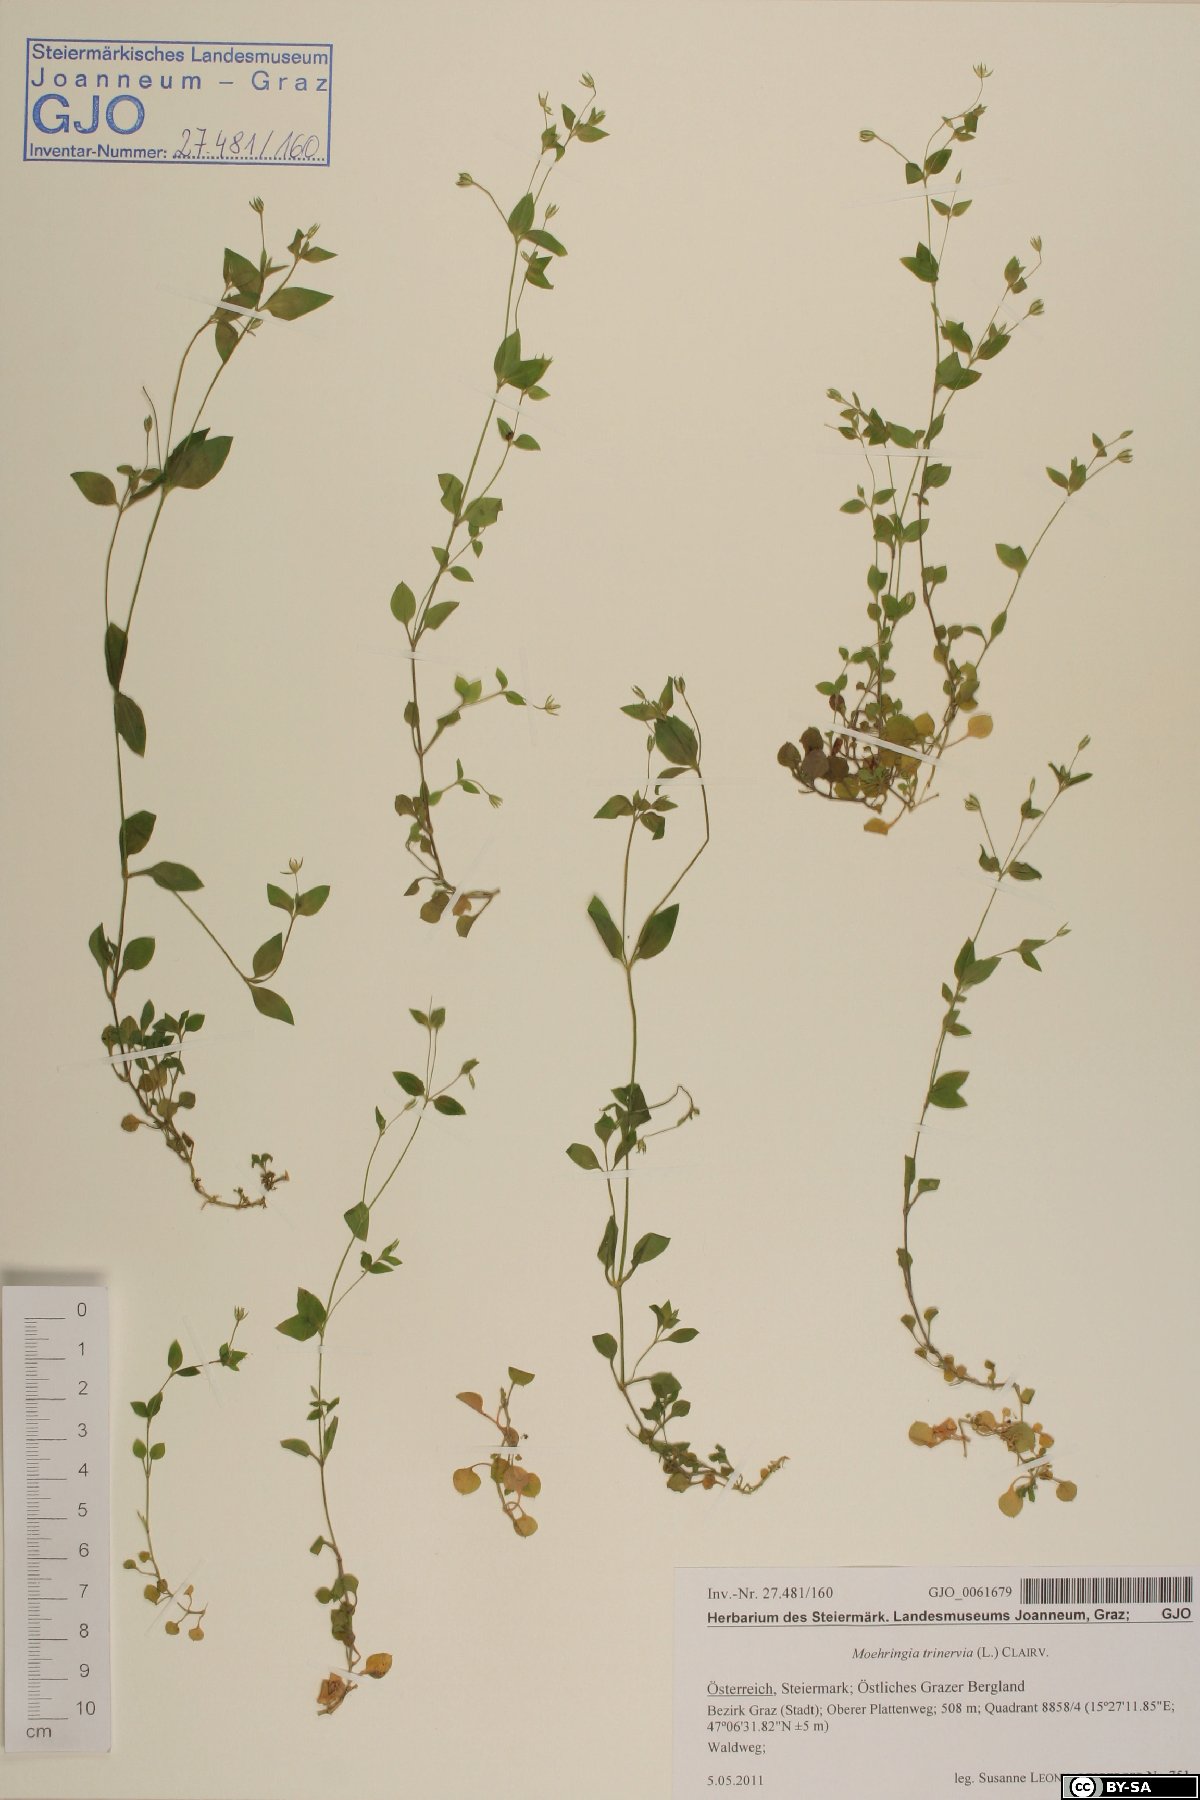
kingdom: Plantae
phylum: Tracheophyta
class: Magnoliopsida
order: Caryophyllales
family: Caryophyllaceae
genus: Moehringia
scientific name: Moehringia trinervia
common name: Three-nerved sandwort
